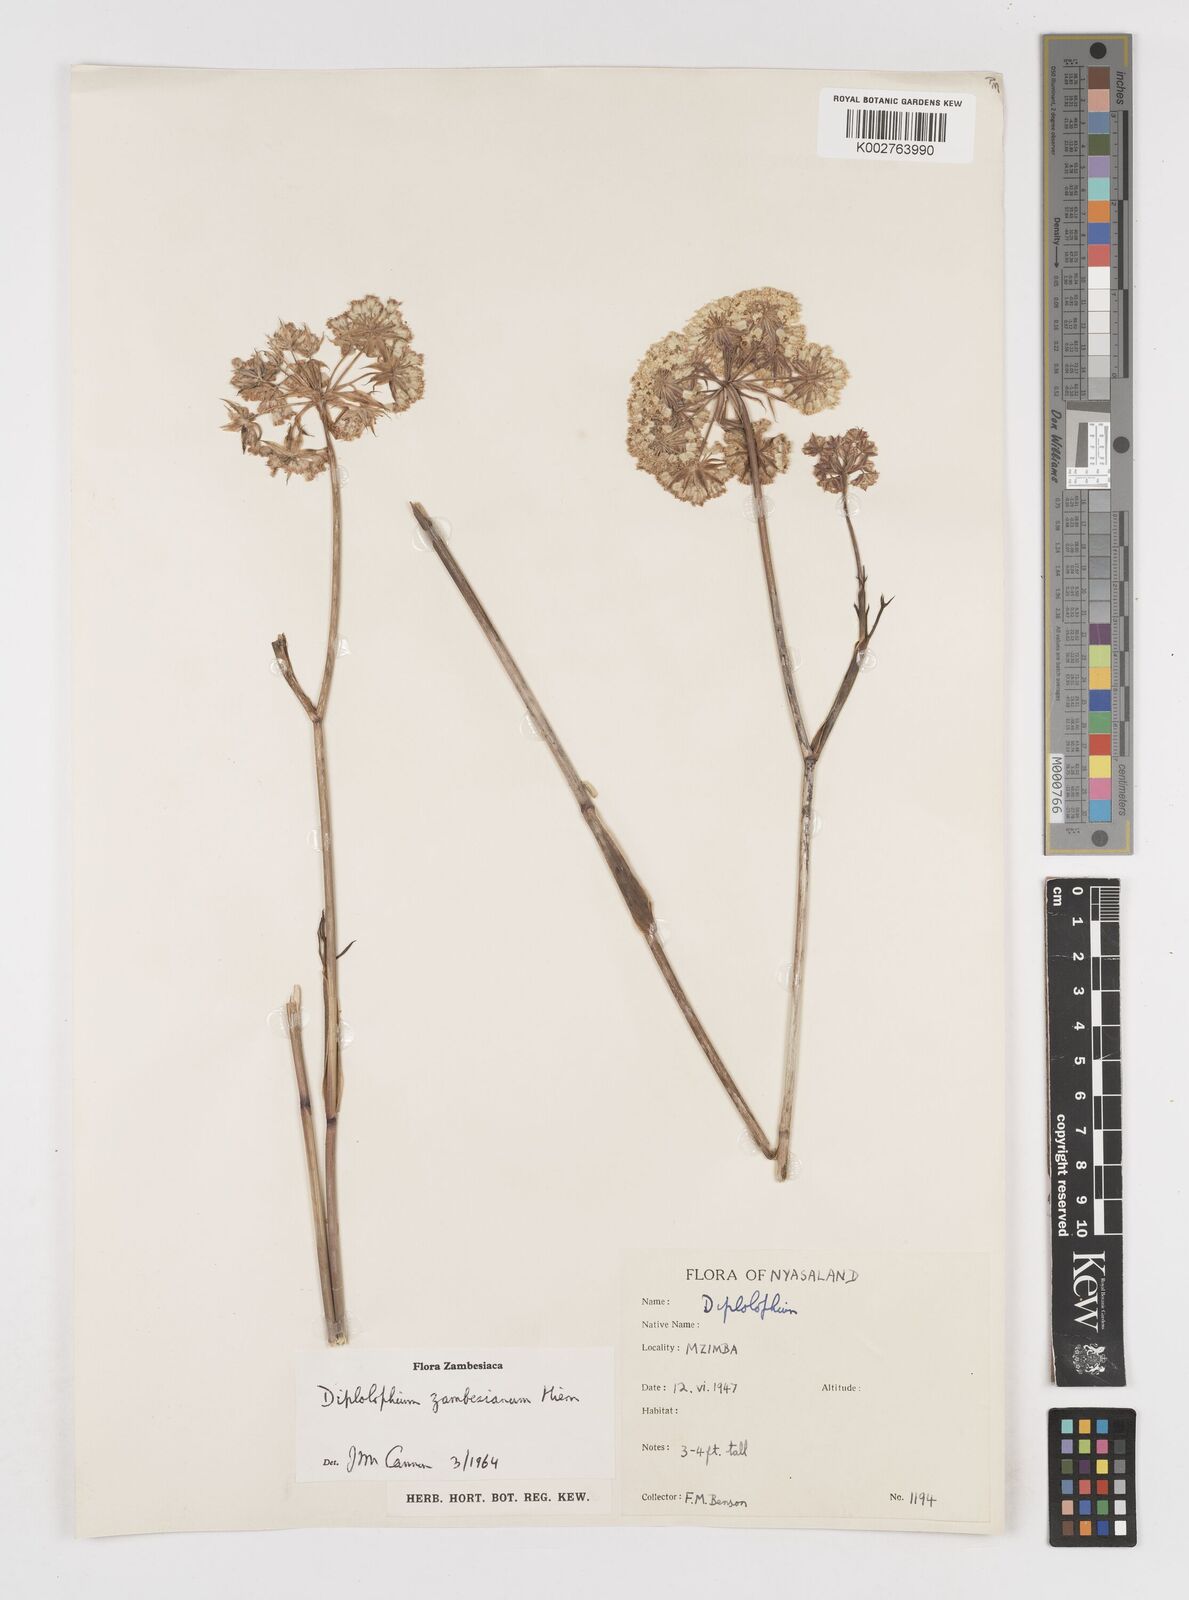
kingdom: Plantae
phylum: Tracheophyta
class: Magnoliopsida
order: Apiales
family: Apiaceae
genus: Diplolophium
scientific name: Diplolophium zambesianum
